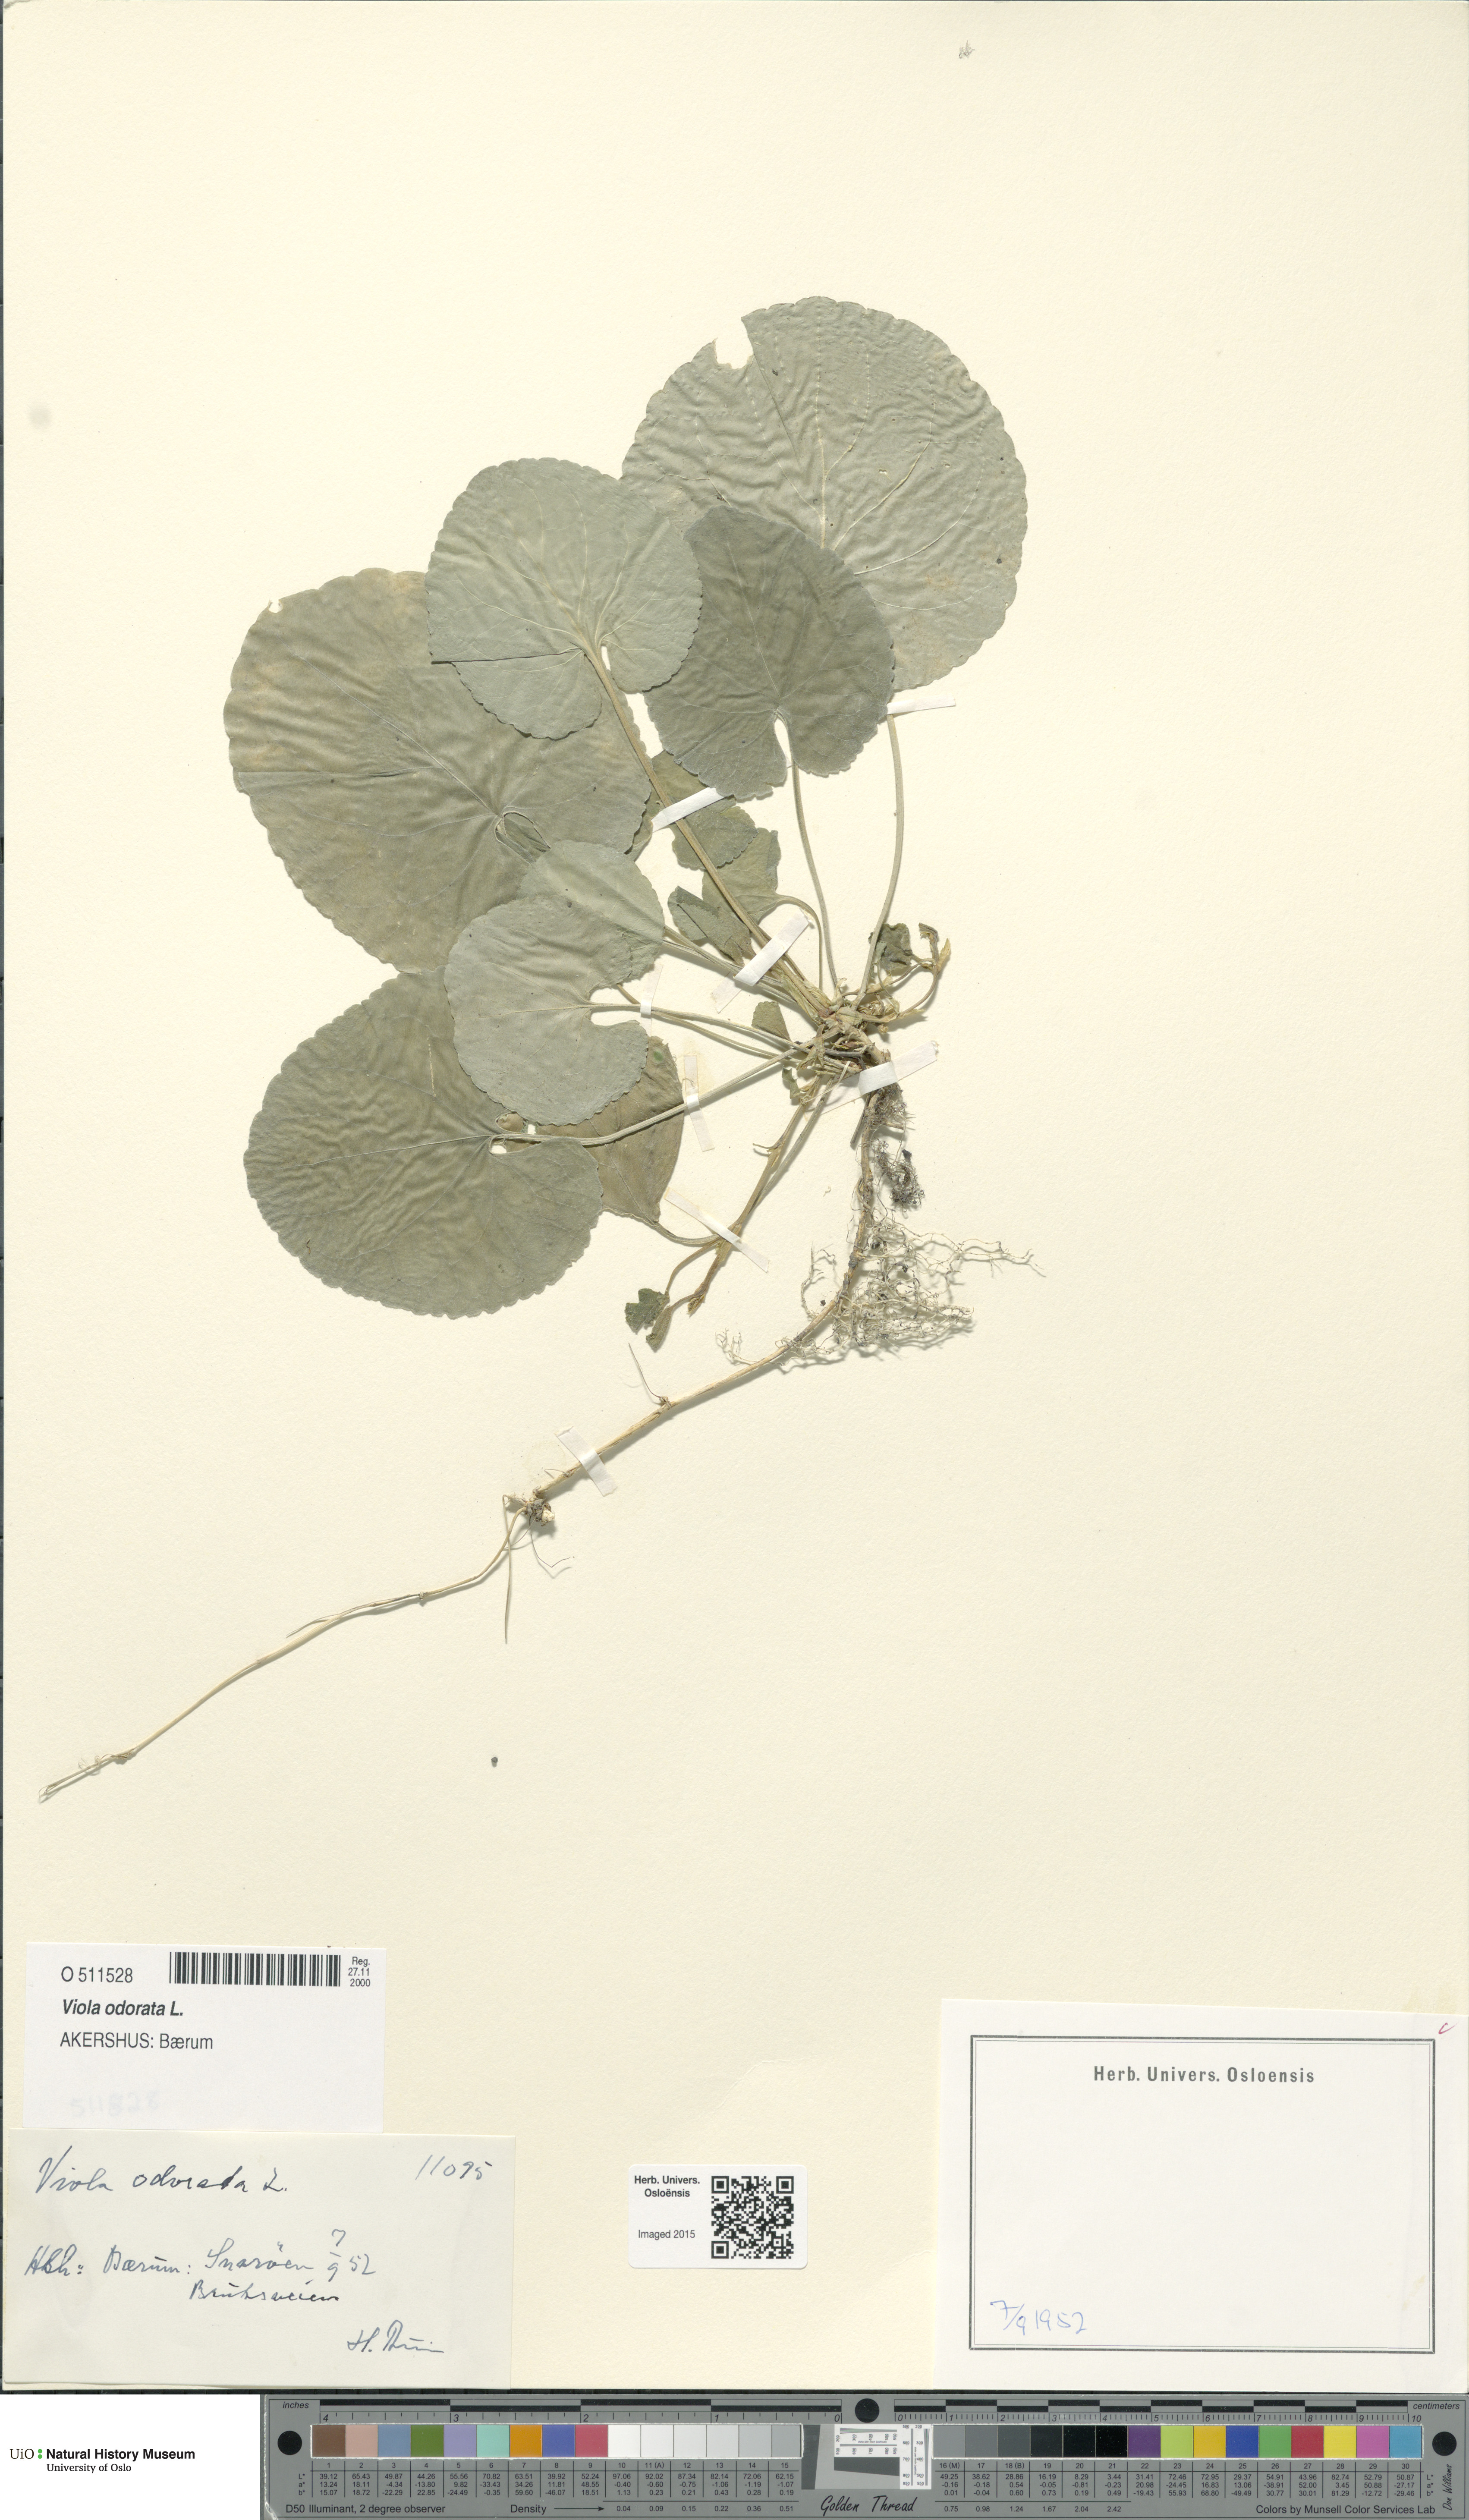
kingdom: Plantae
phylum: Tracheophyta
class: Magnoliopsida
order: Malpighiales
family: Violaceae
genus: Viola
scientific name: Viola odorata
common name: Sweet violet
